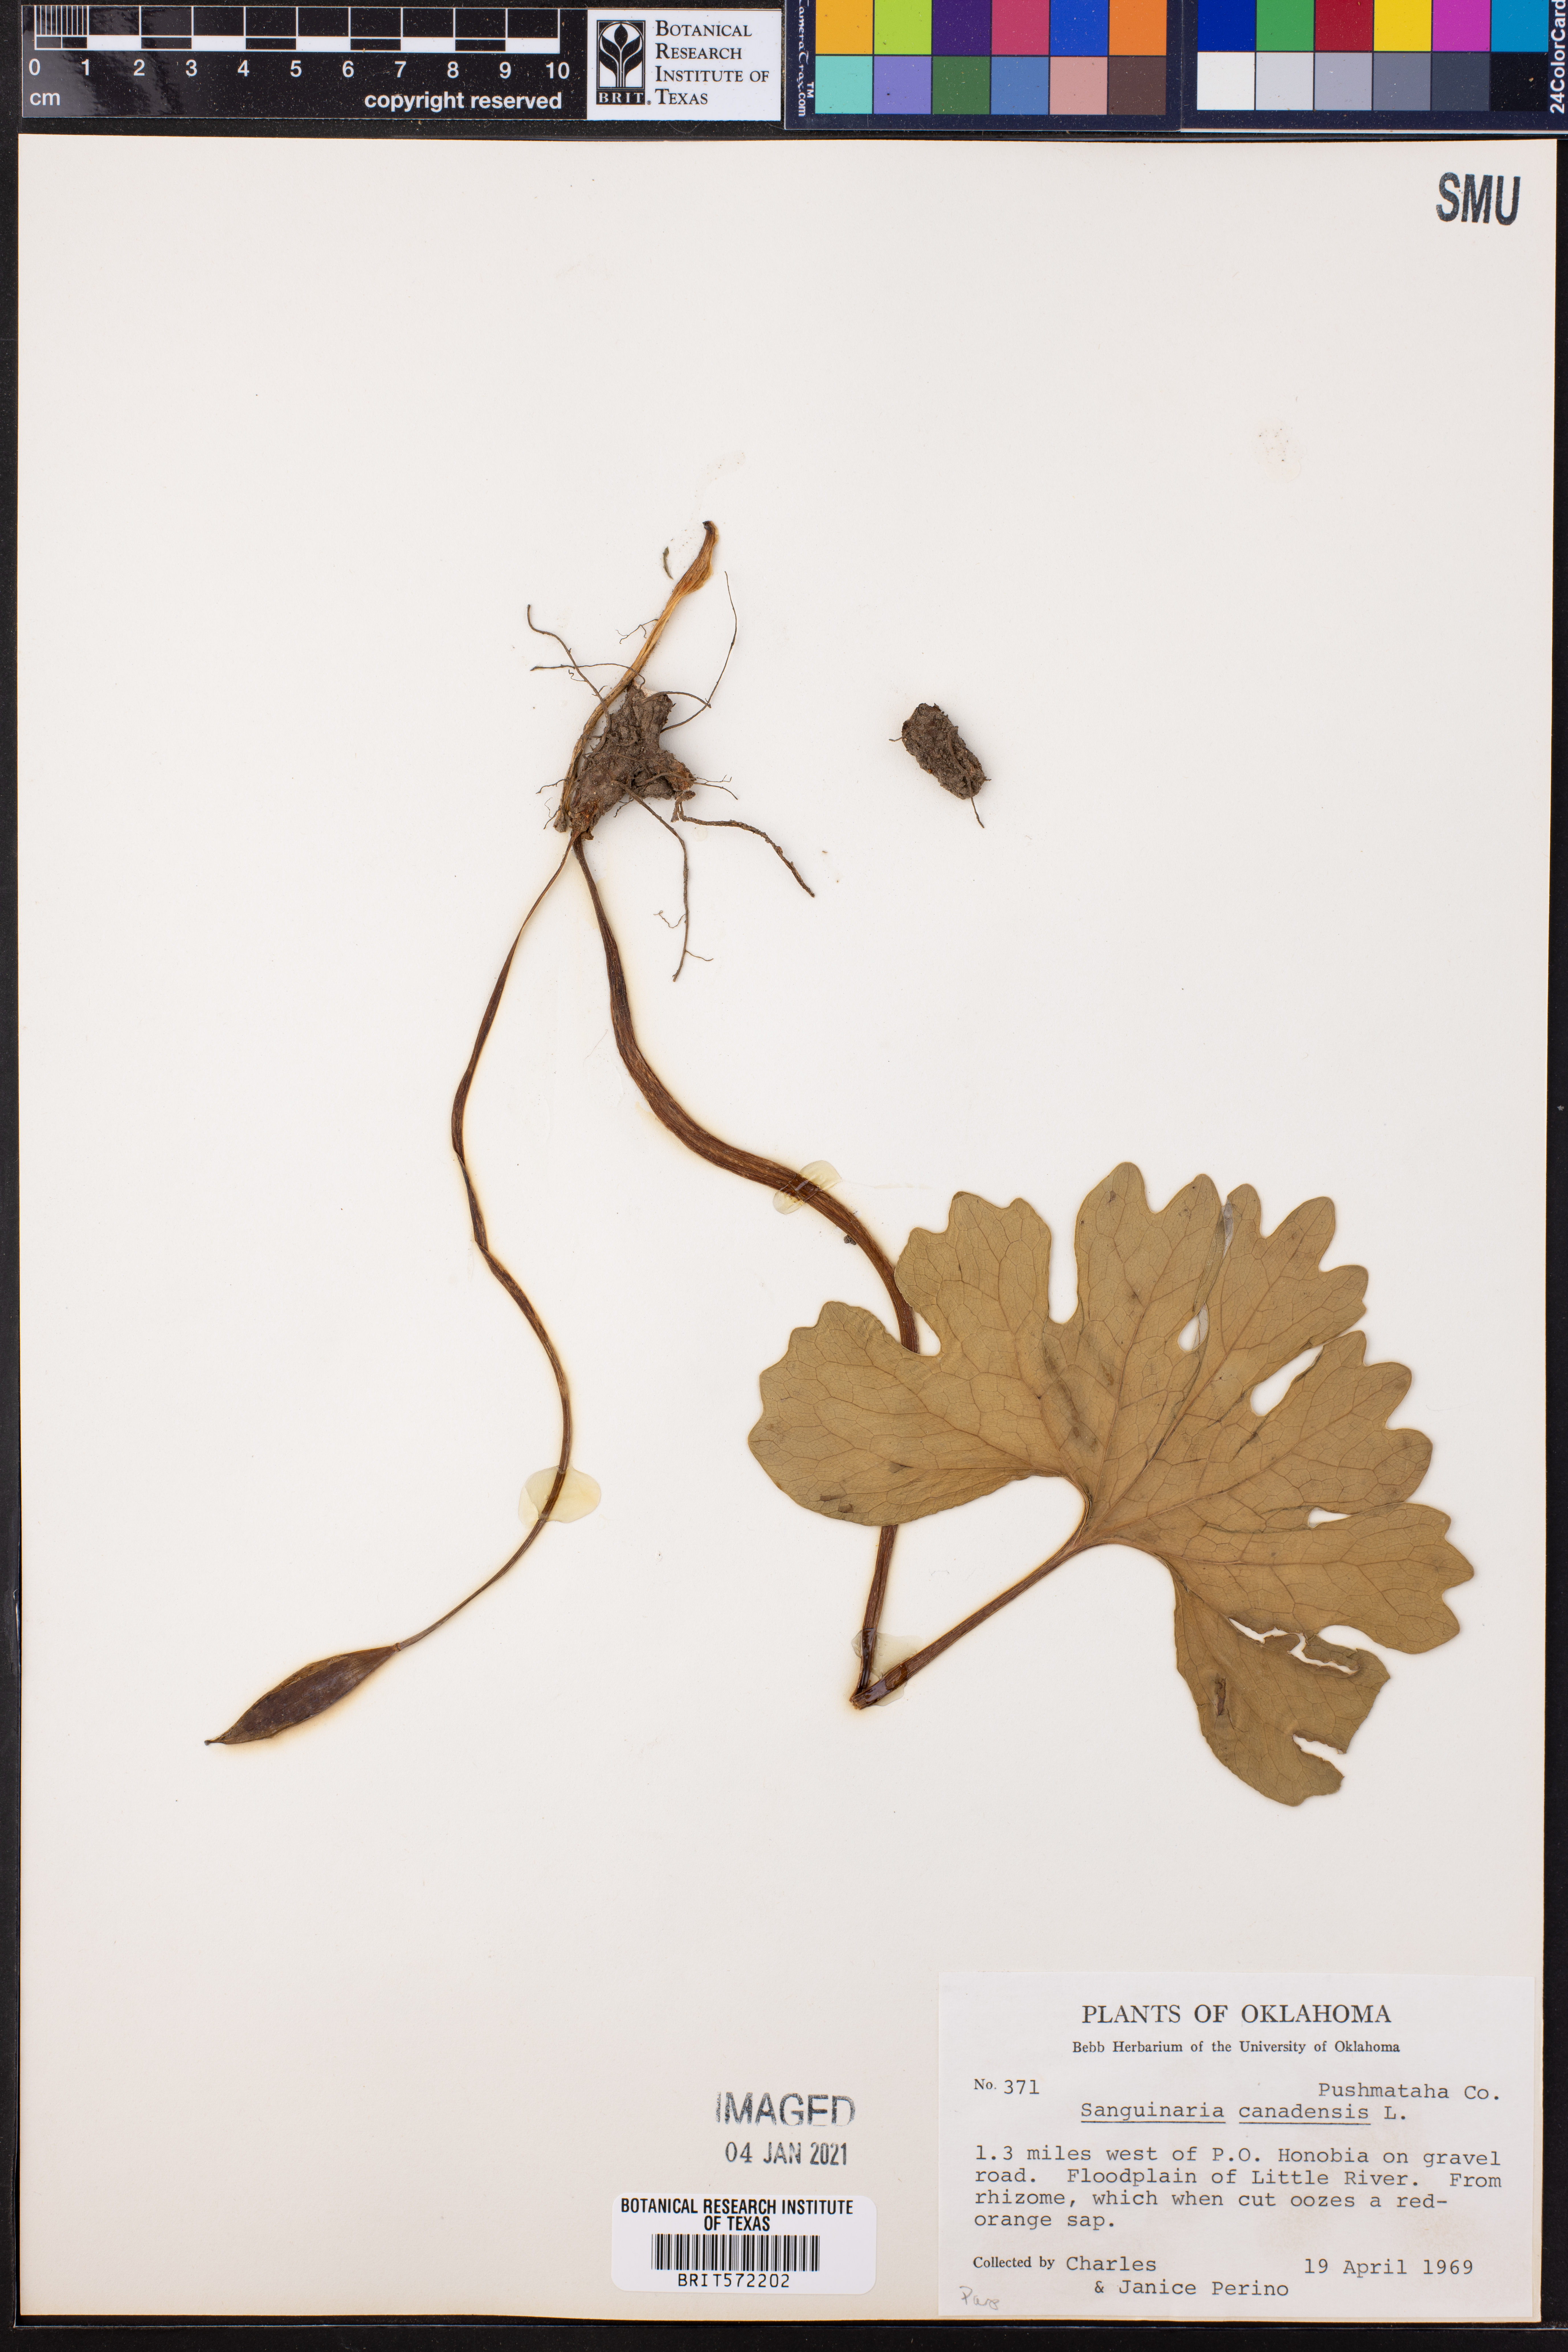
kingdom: Plantae
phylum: Tracheophyta
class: Magnoliopsida
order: Ranunculales
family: Papaveraceae
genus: Sanguinaria
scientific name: Sanguinaria canadensis
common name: Bloodroot
